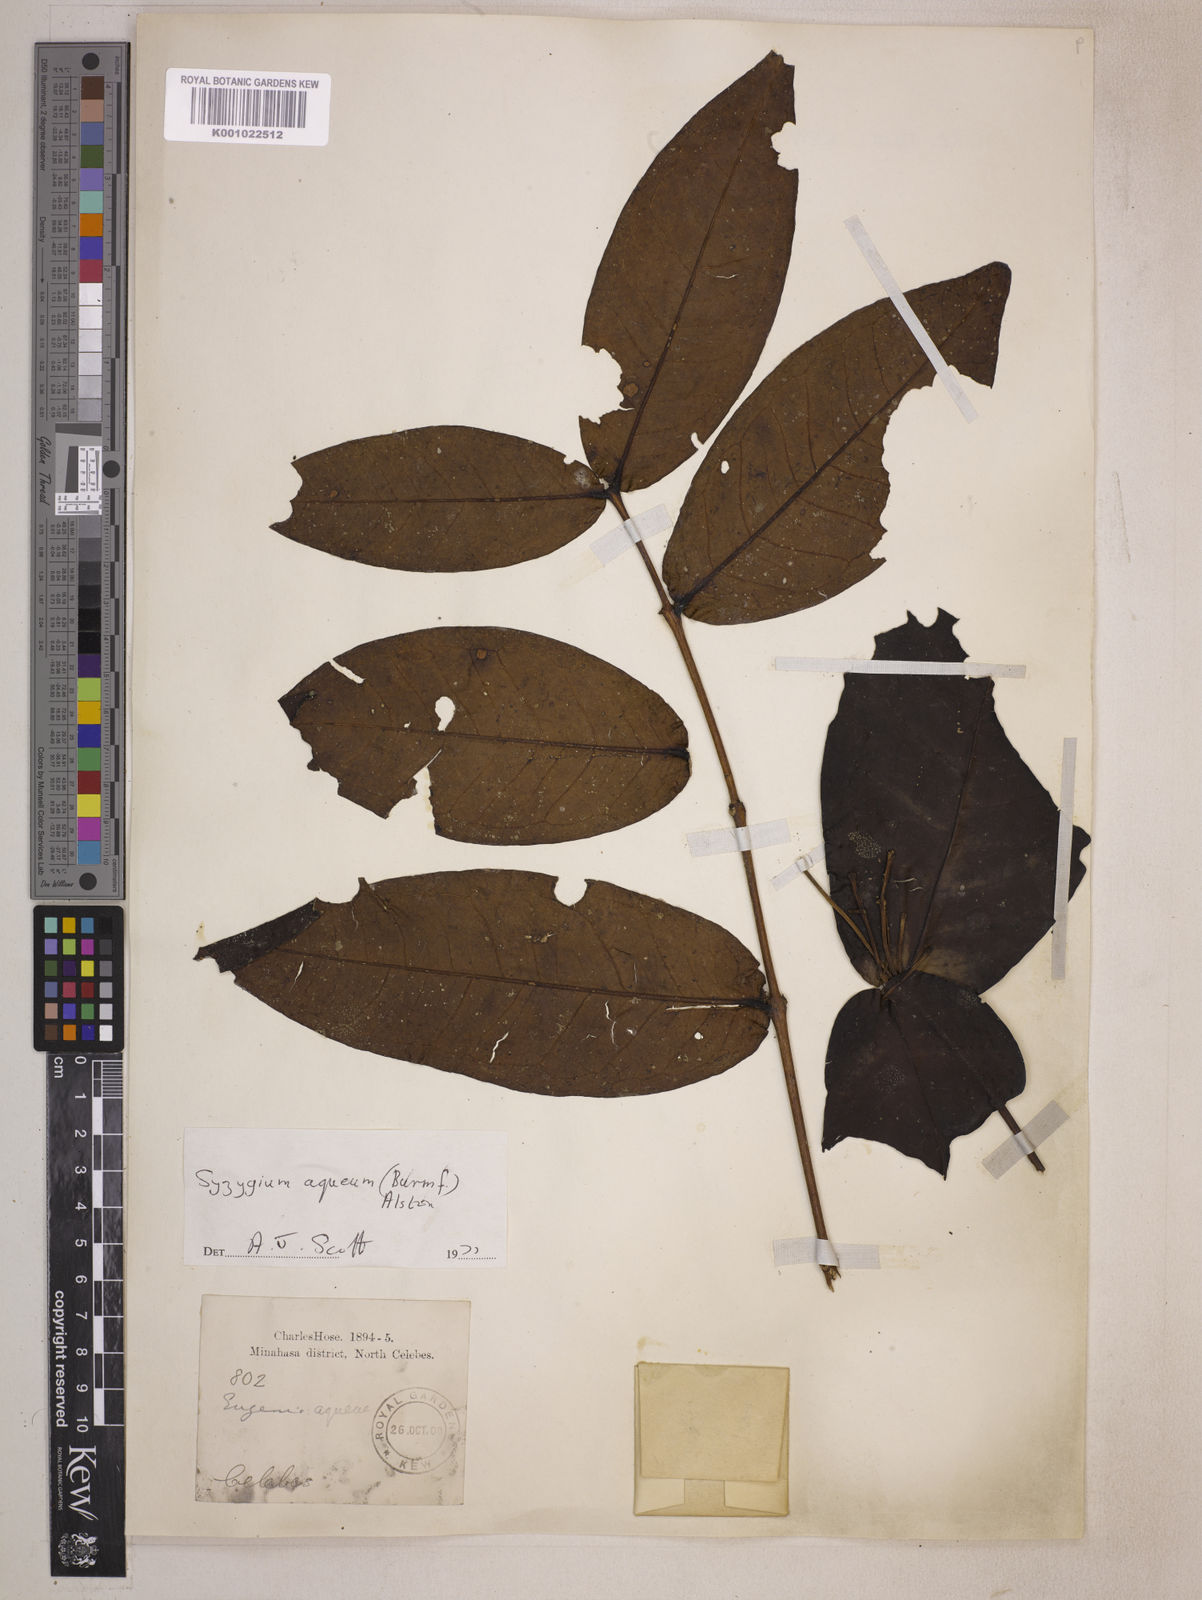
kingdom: Plantae
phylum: Tracheophyta
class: Magnoliopsida
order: Myrtales
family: Myrtaceae
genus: Syzygium
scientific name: Syzygium aqueum
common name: Water-apple
